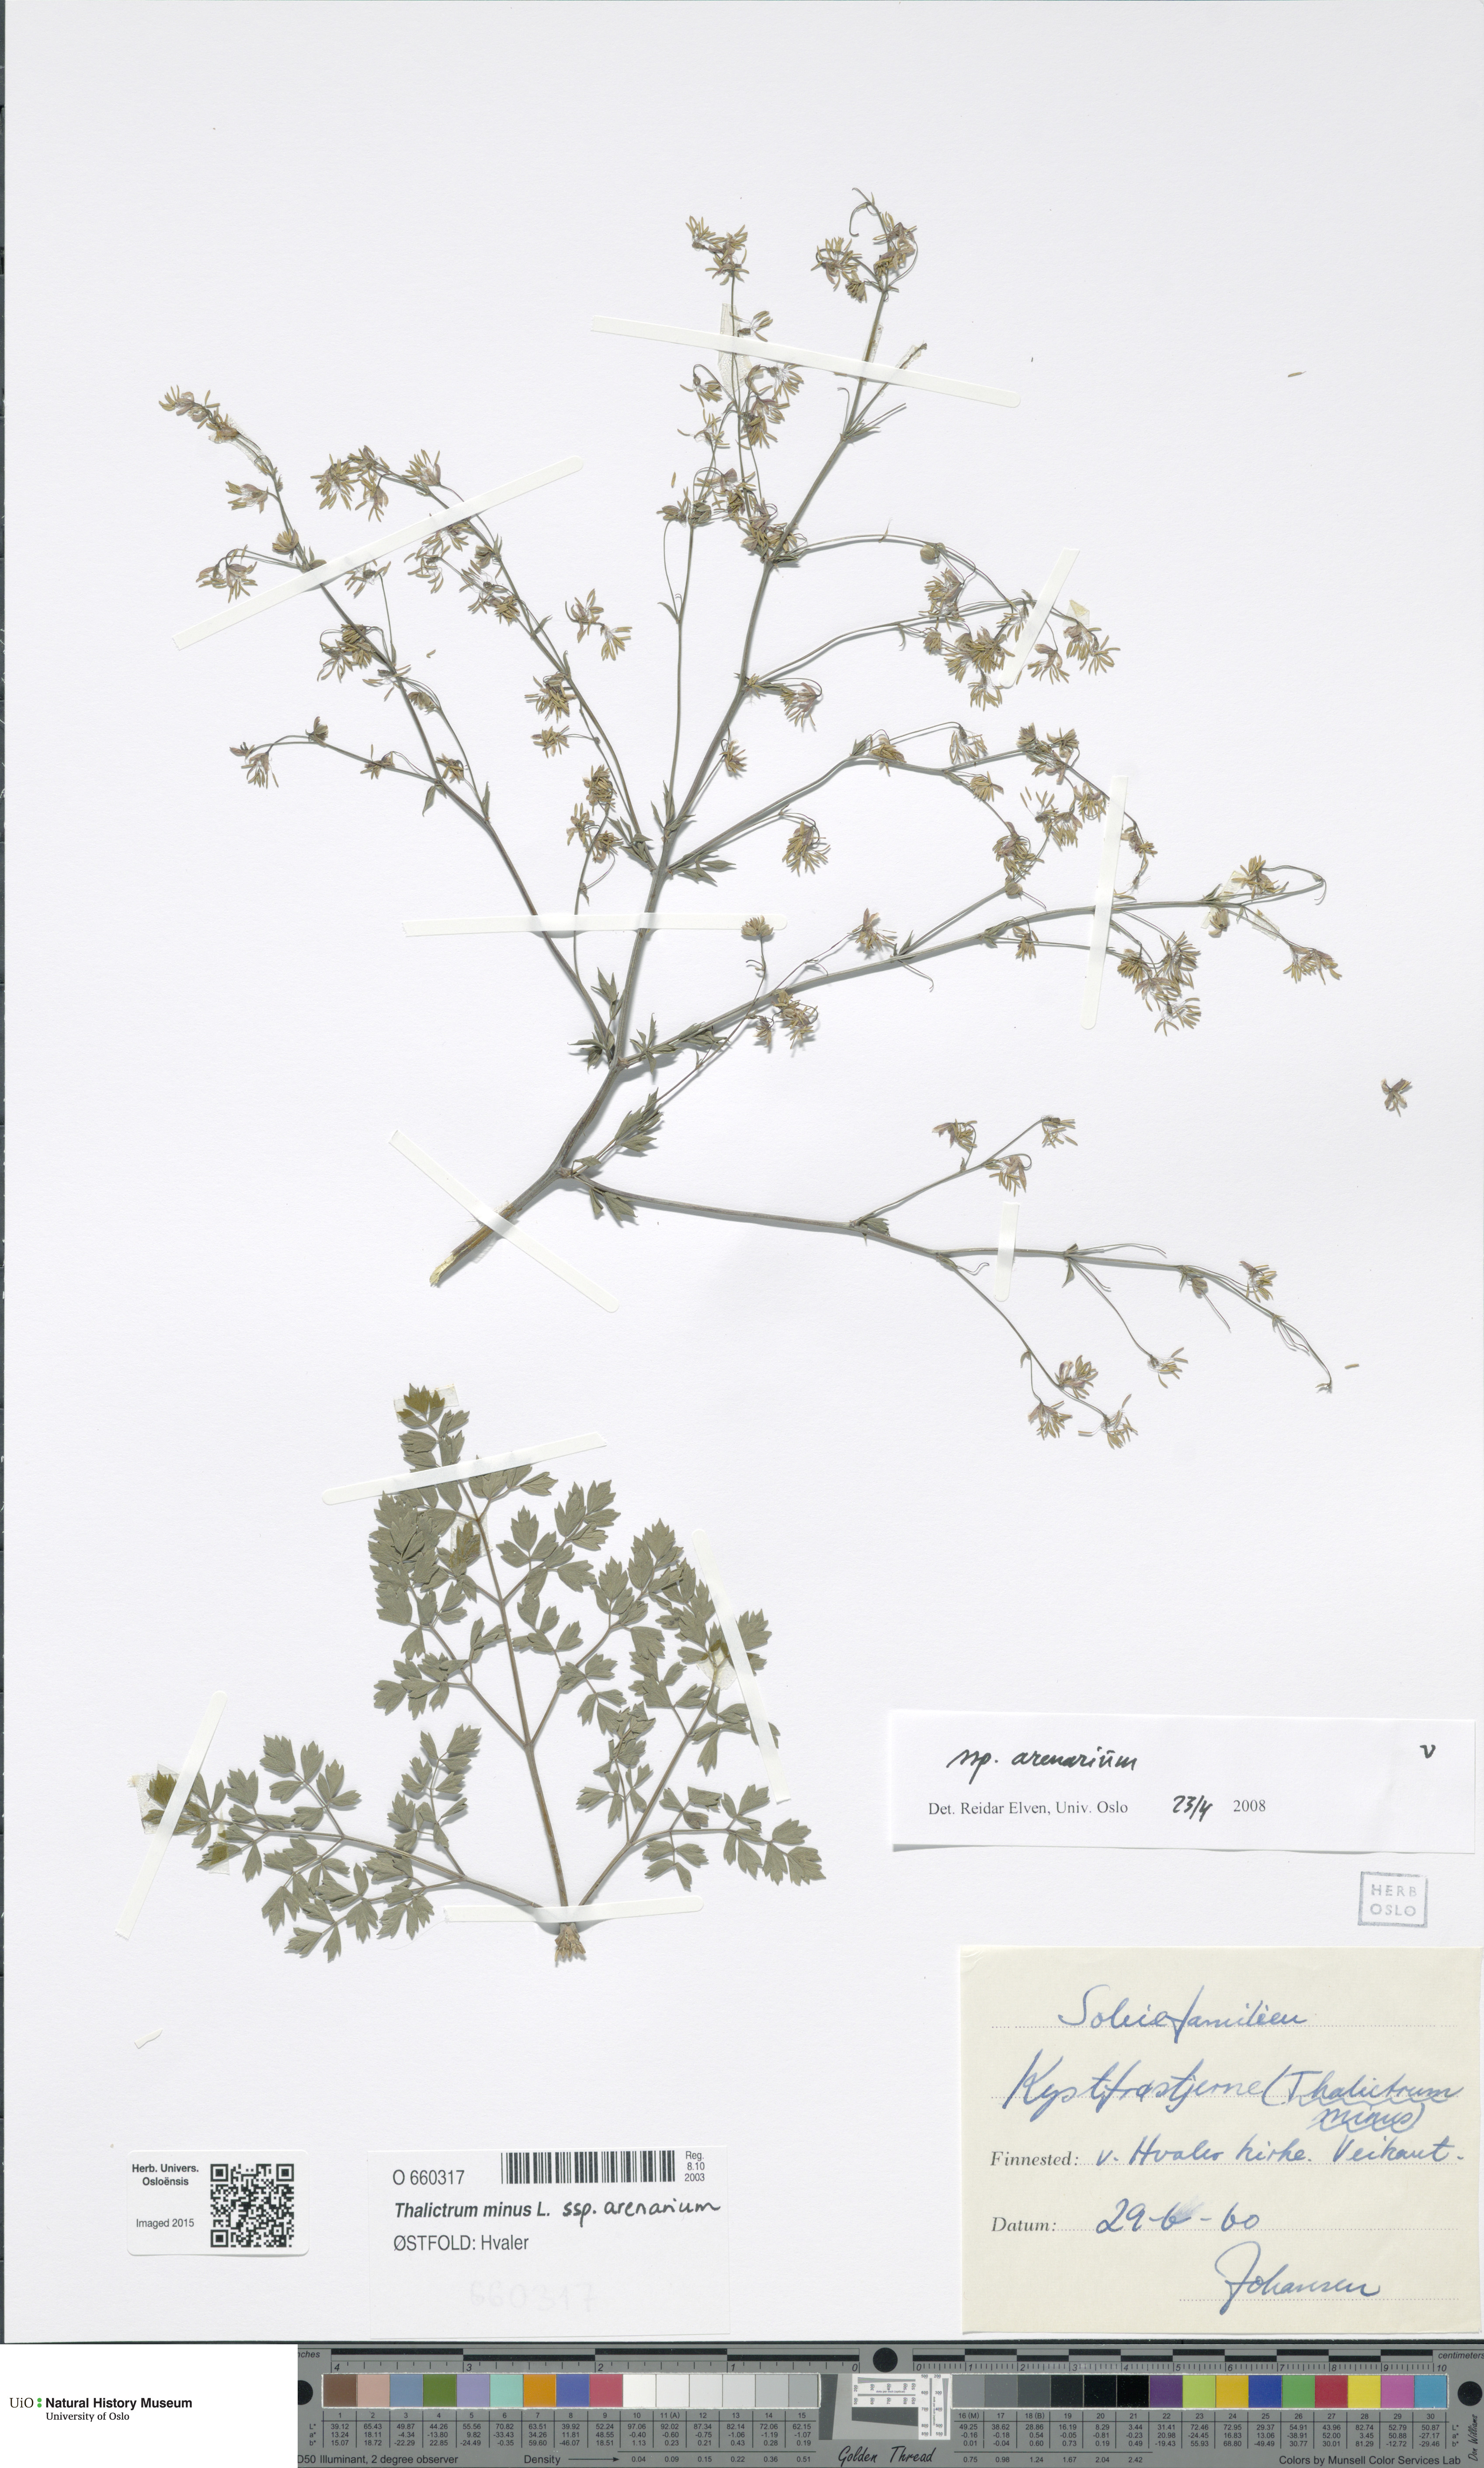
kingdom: Plantae
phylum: Tracheophyta
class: Magnoliopsida
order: Ranunculales
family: Ranunculaceae
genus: Thalictrum
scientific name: Thalictrum minus
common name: Lesser meadow-rue
